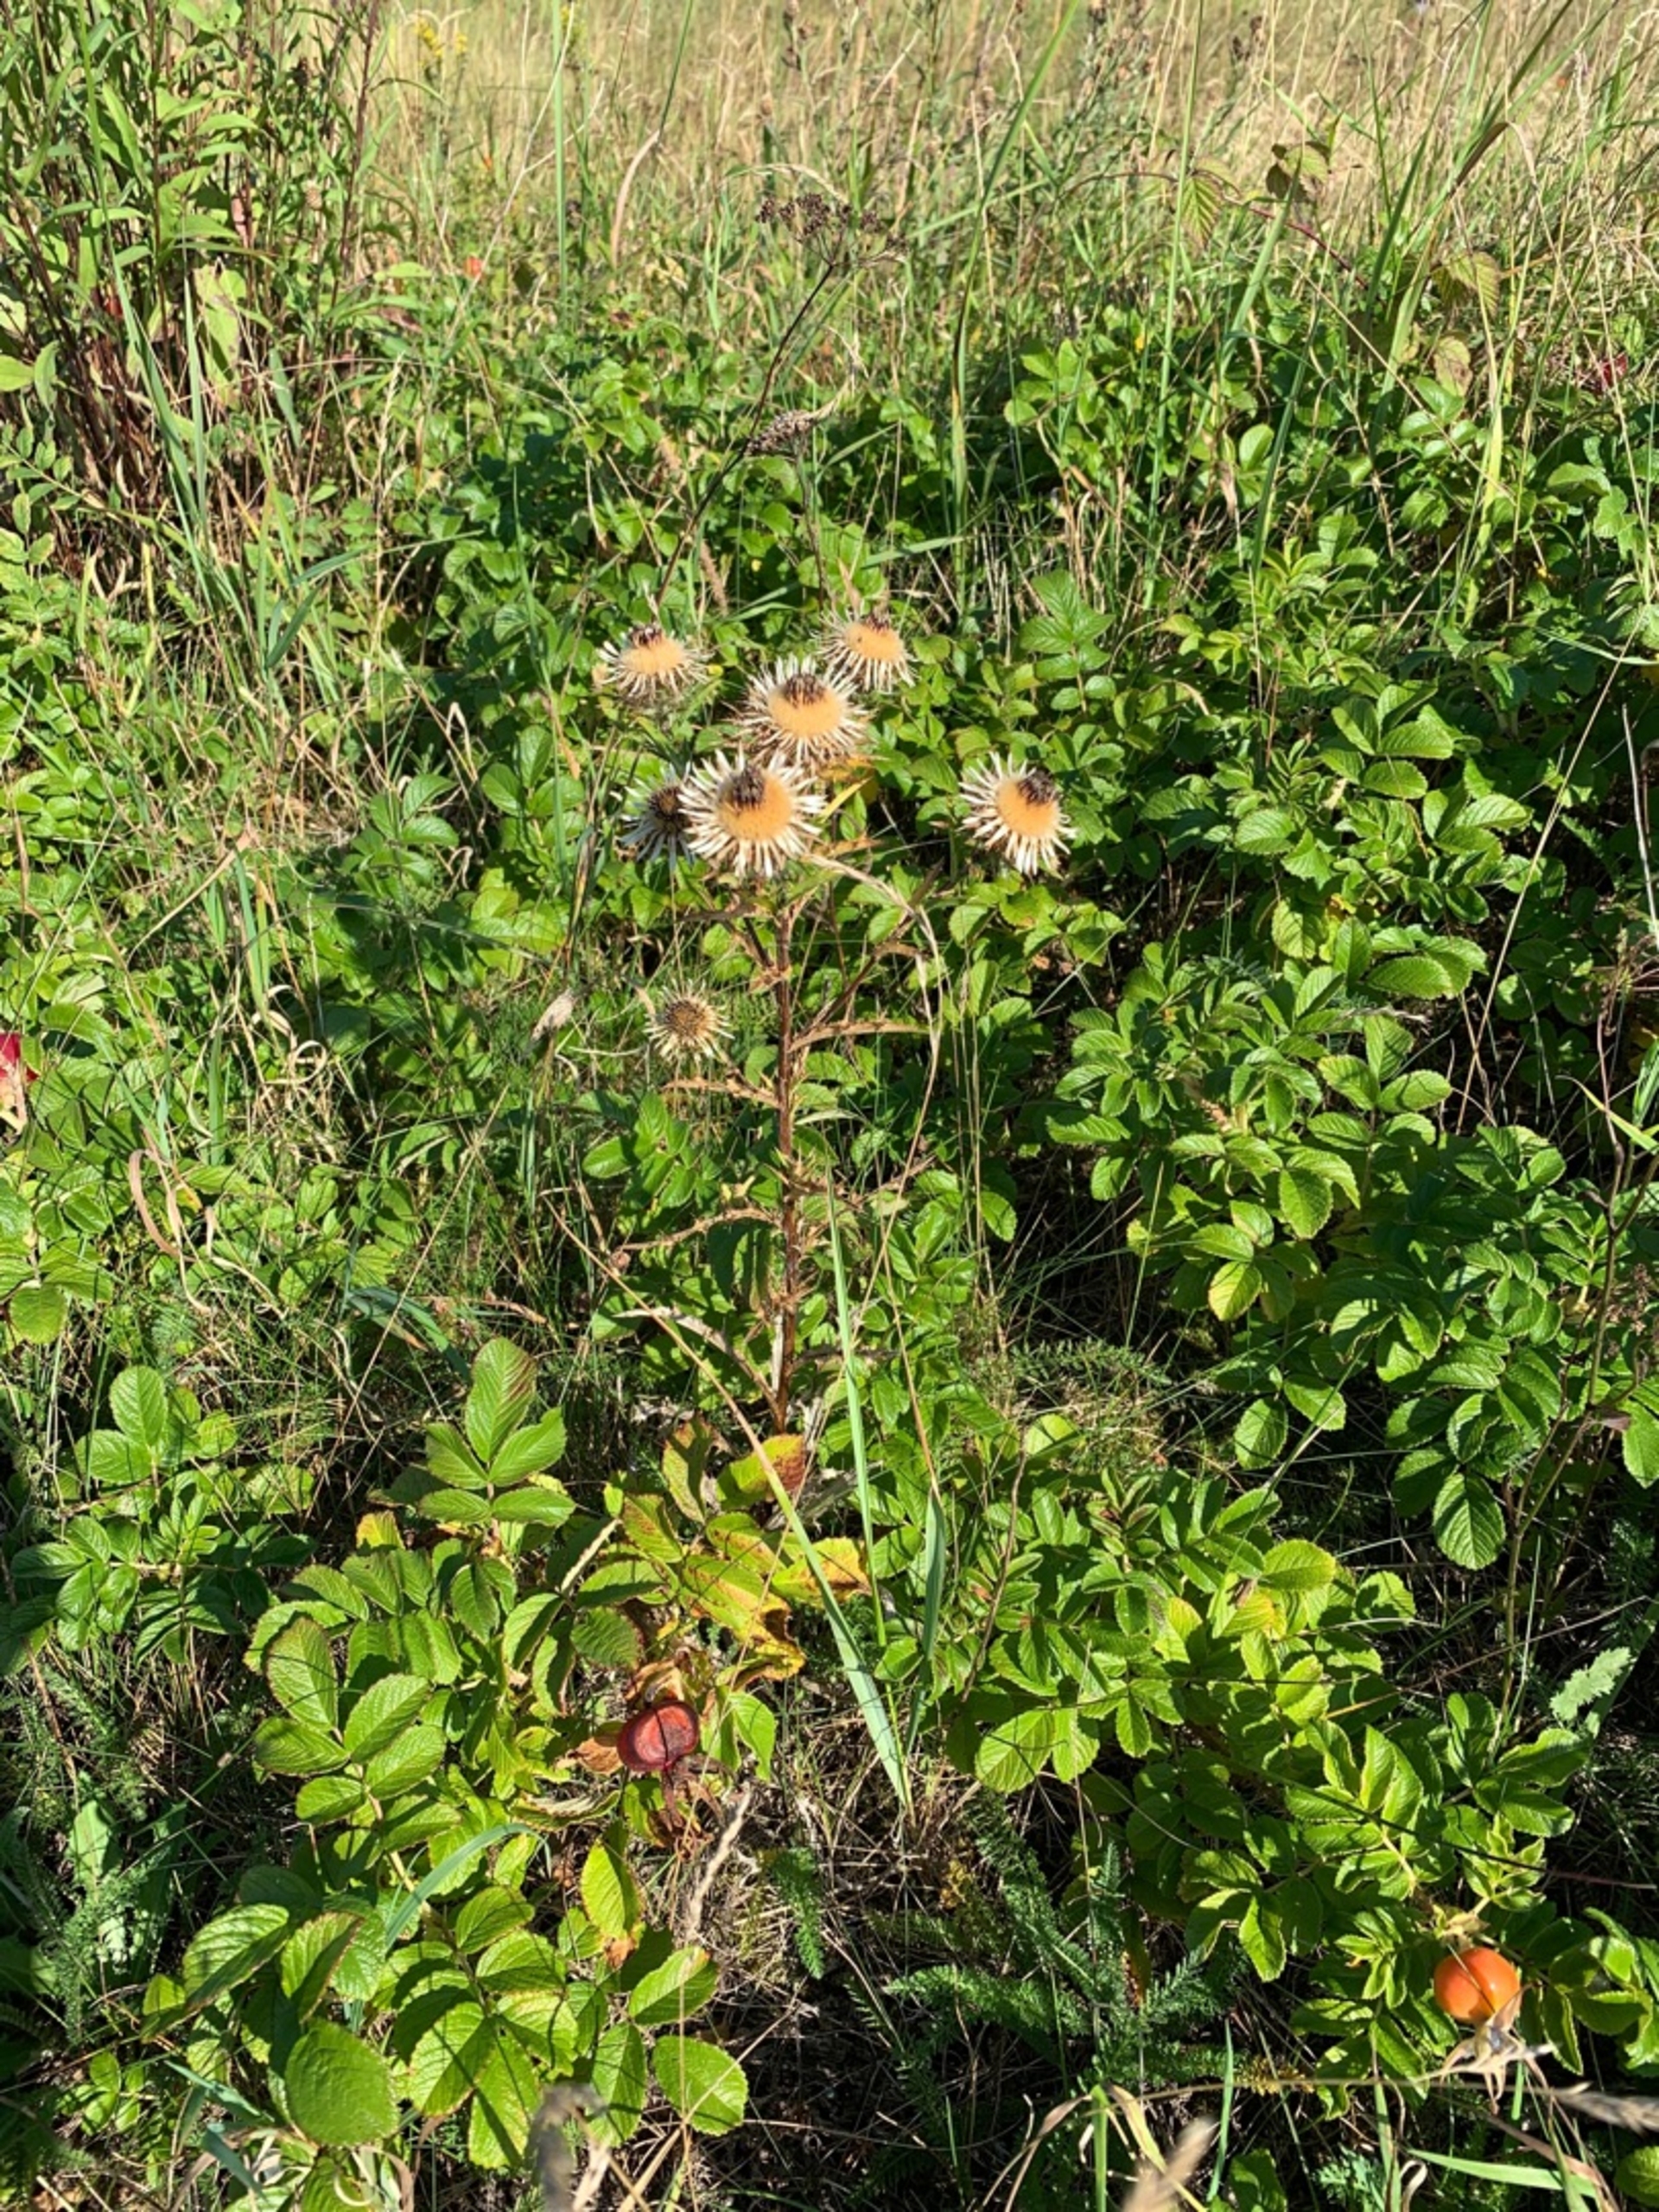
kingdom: Plantae
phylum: Tracheophyta
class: Magnoliopsida
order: Asterales
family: Asteraceae
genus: Carlina
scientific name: Carlina vulgaris
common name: Bakketidsel
